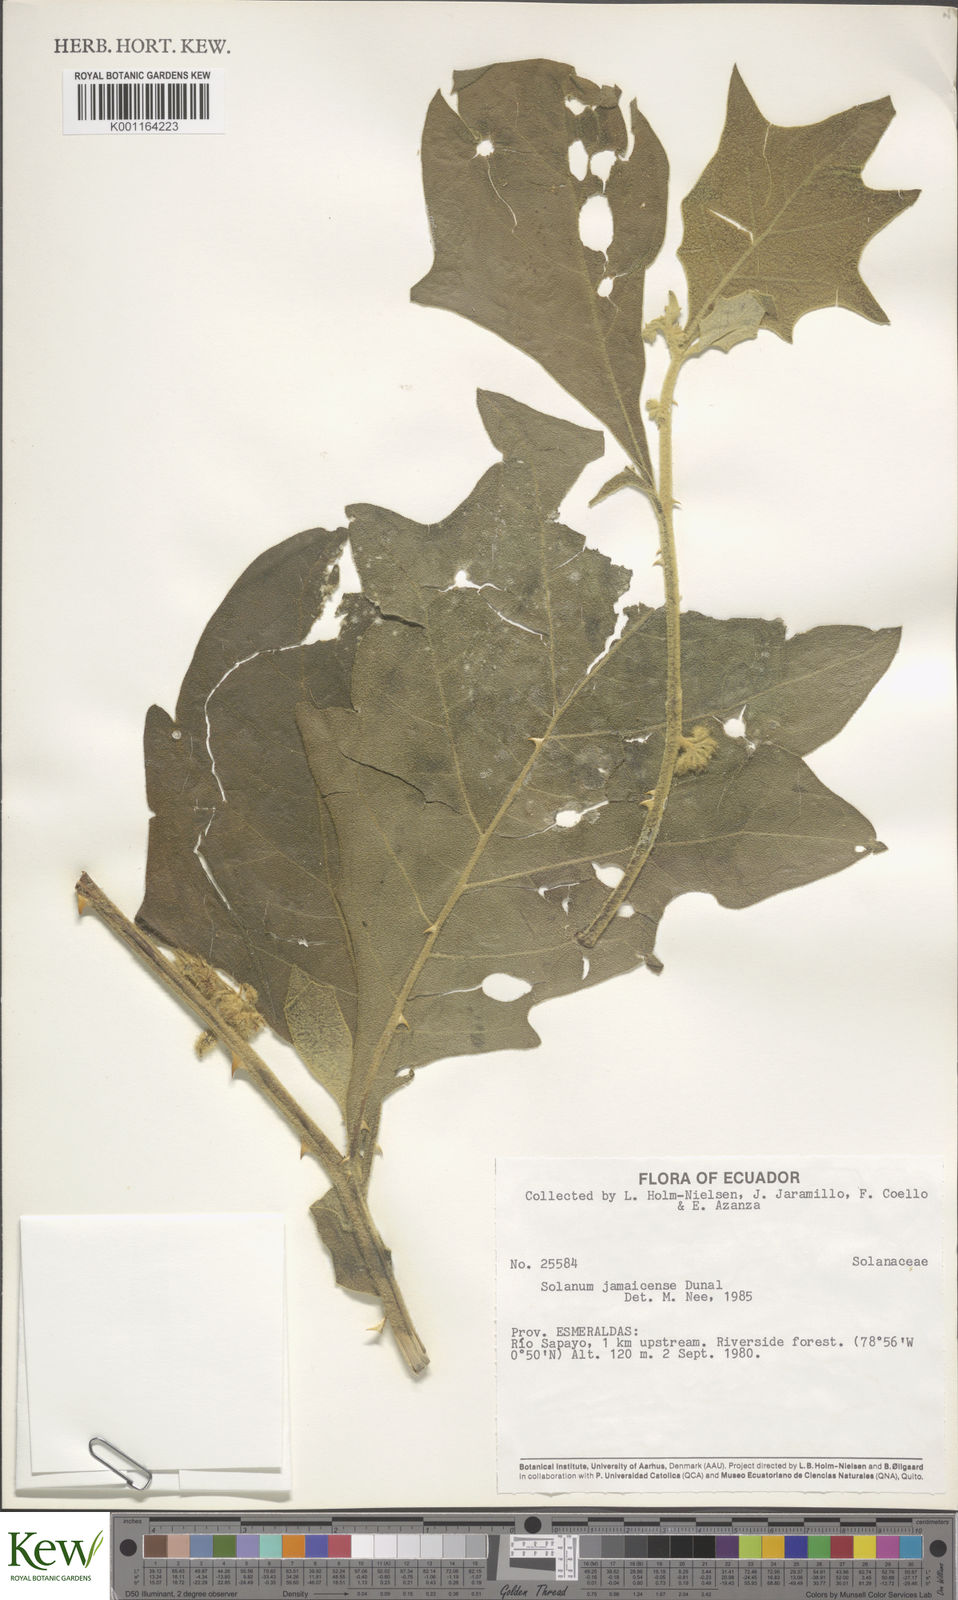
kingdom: Plantae
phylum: Tracheophyta
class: Magnoliopsida
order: Solanales
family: Solanaceae
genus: Solanum
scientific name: Solanum jamaicense
